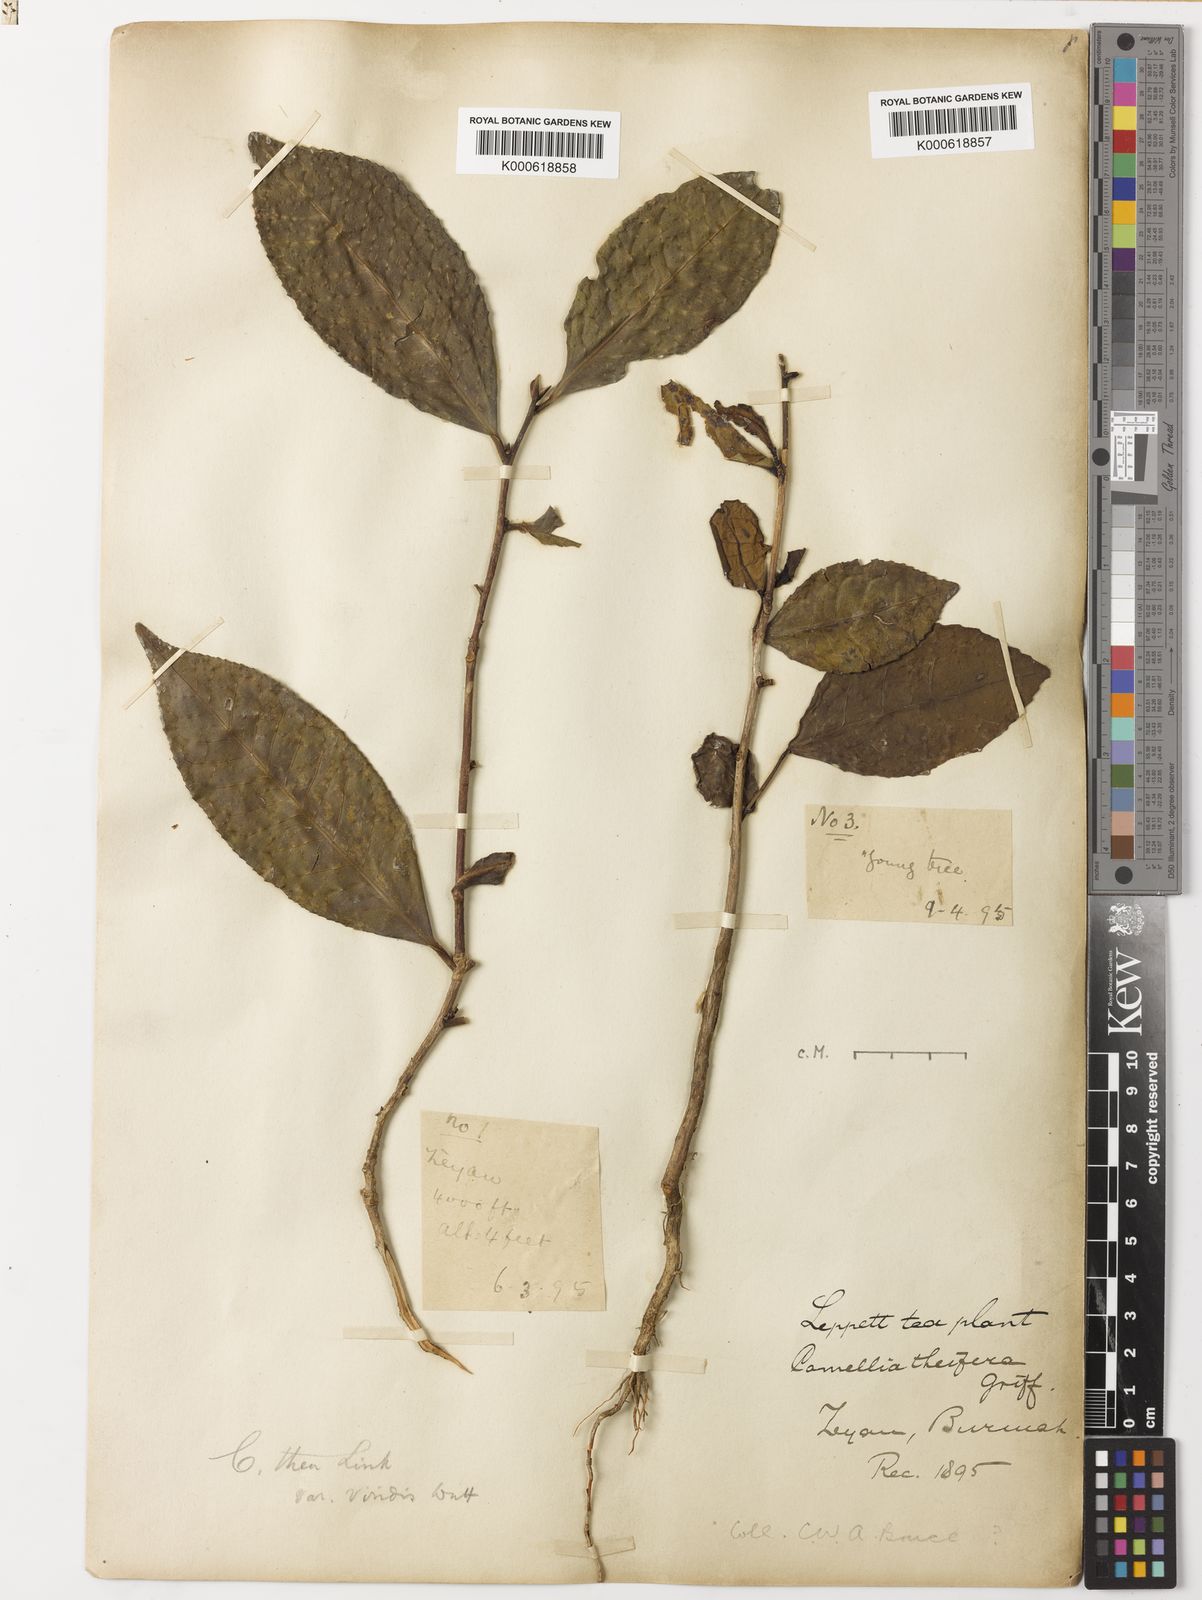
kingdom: Plantae
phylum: Tracheophyta
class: Magnoliopsida
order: Ericales
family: Theaceae
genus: Camellia
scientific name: Camellia sinensis
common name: Tea
